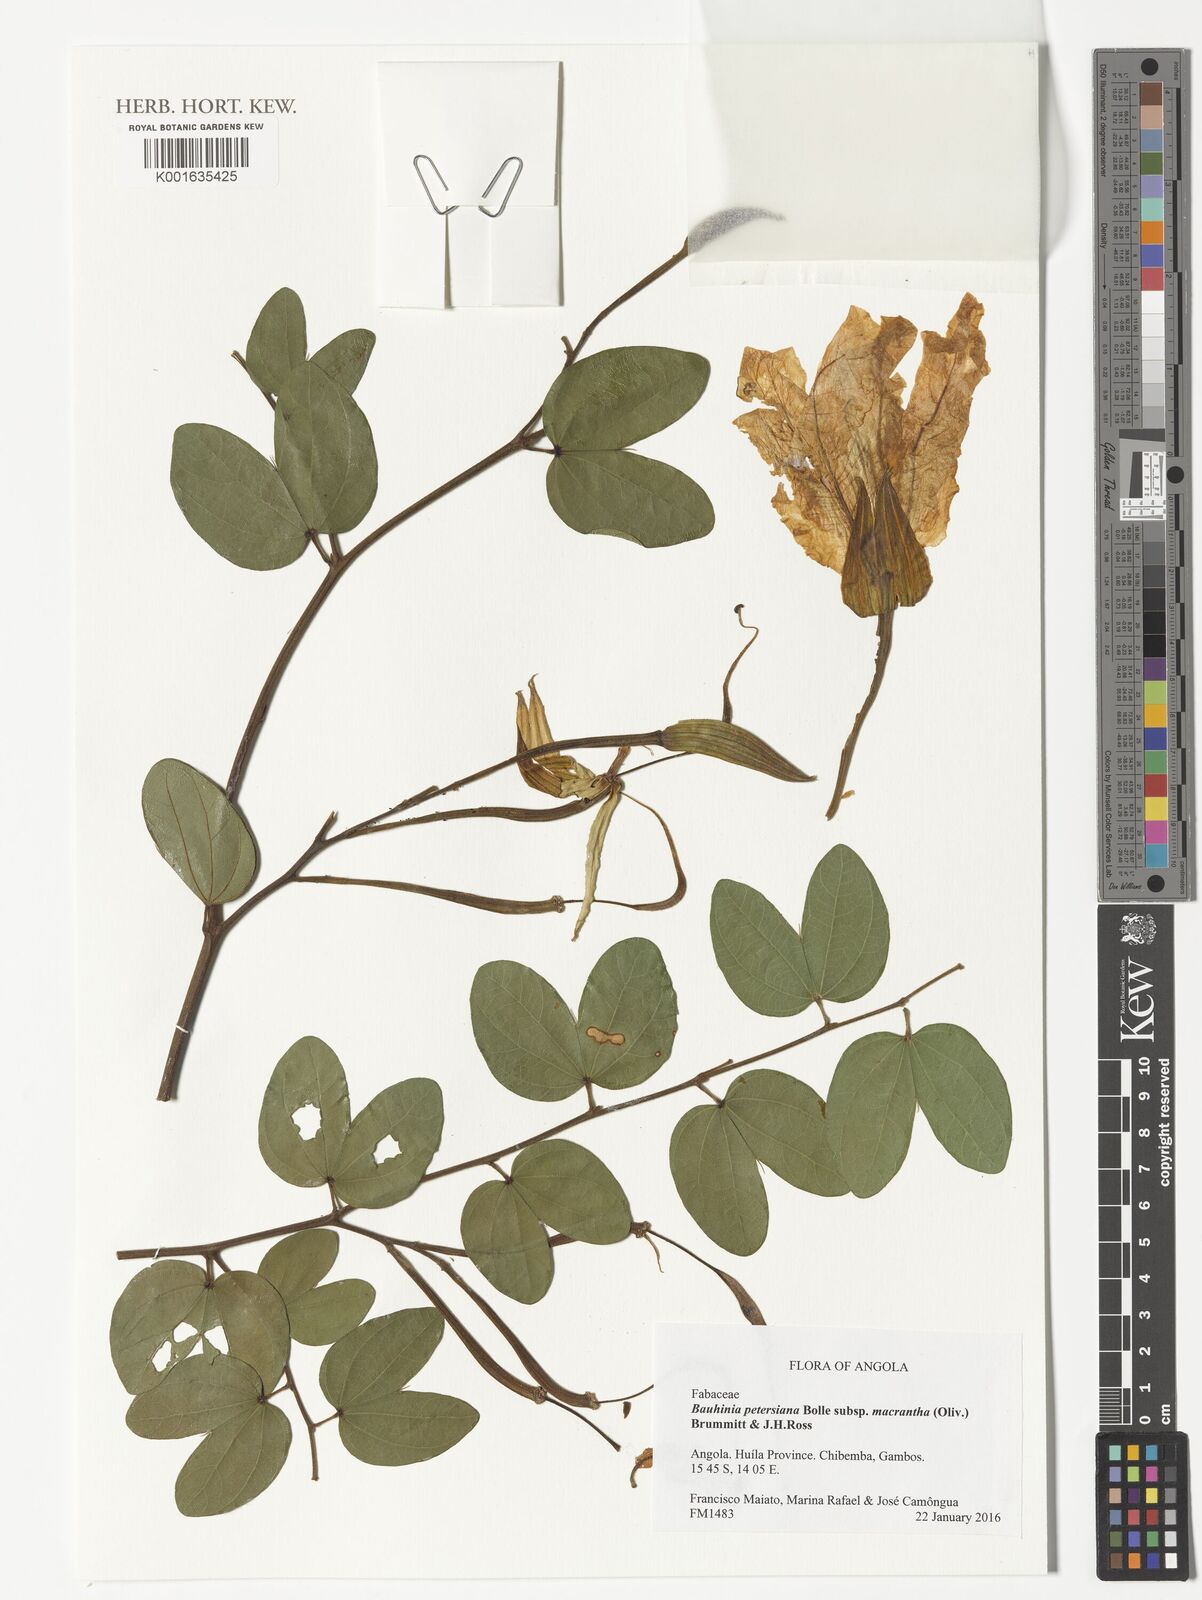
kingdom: Plantae
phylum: Tracheophyta
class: Magnoliopsida
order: Fabales
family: Fabaceae
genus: Bauhinia
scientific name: Bauhinia macrantha
